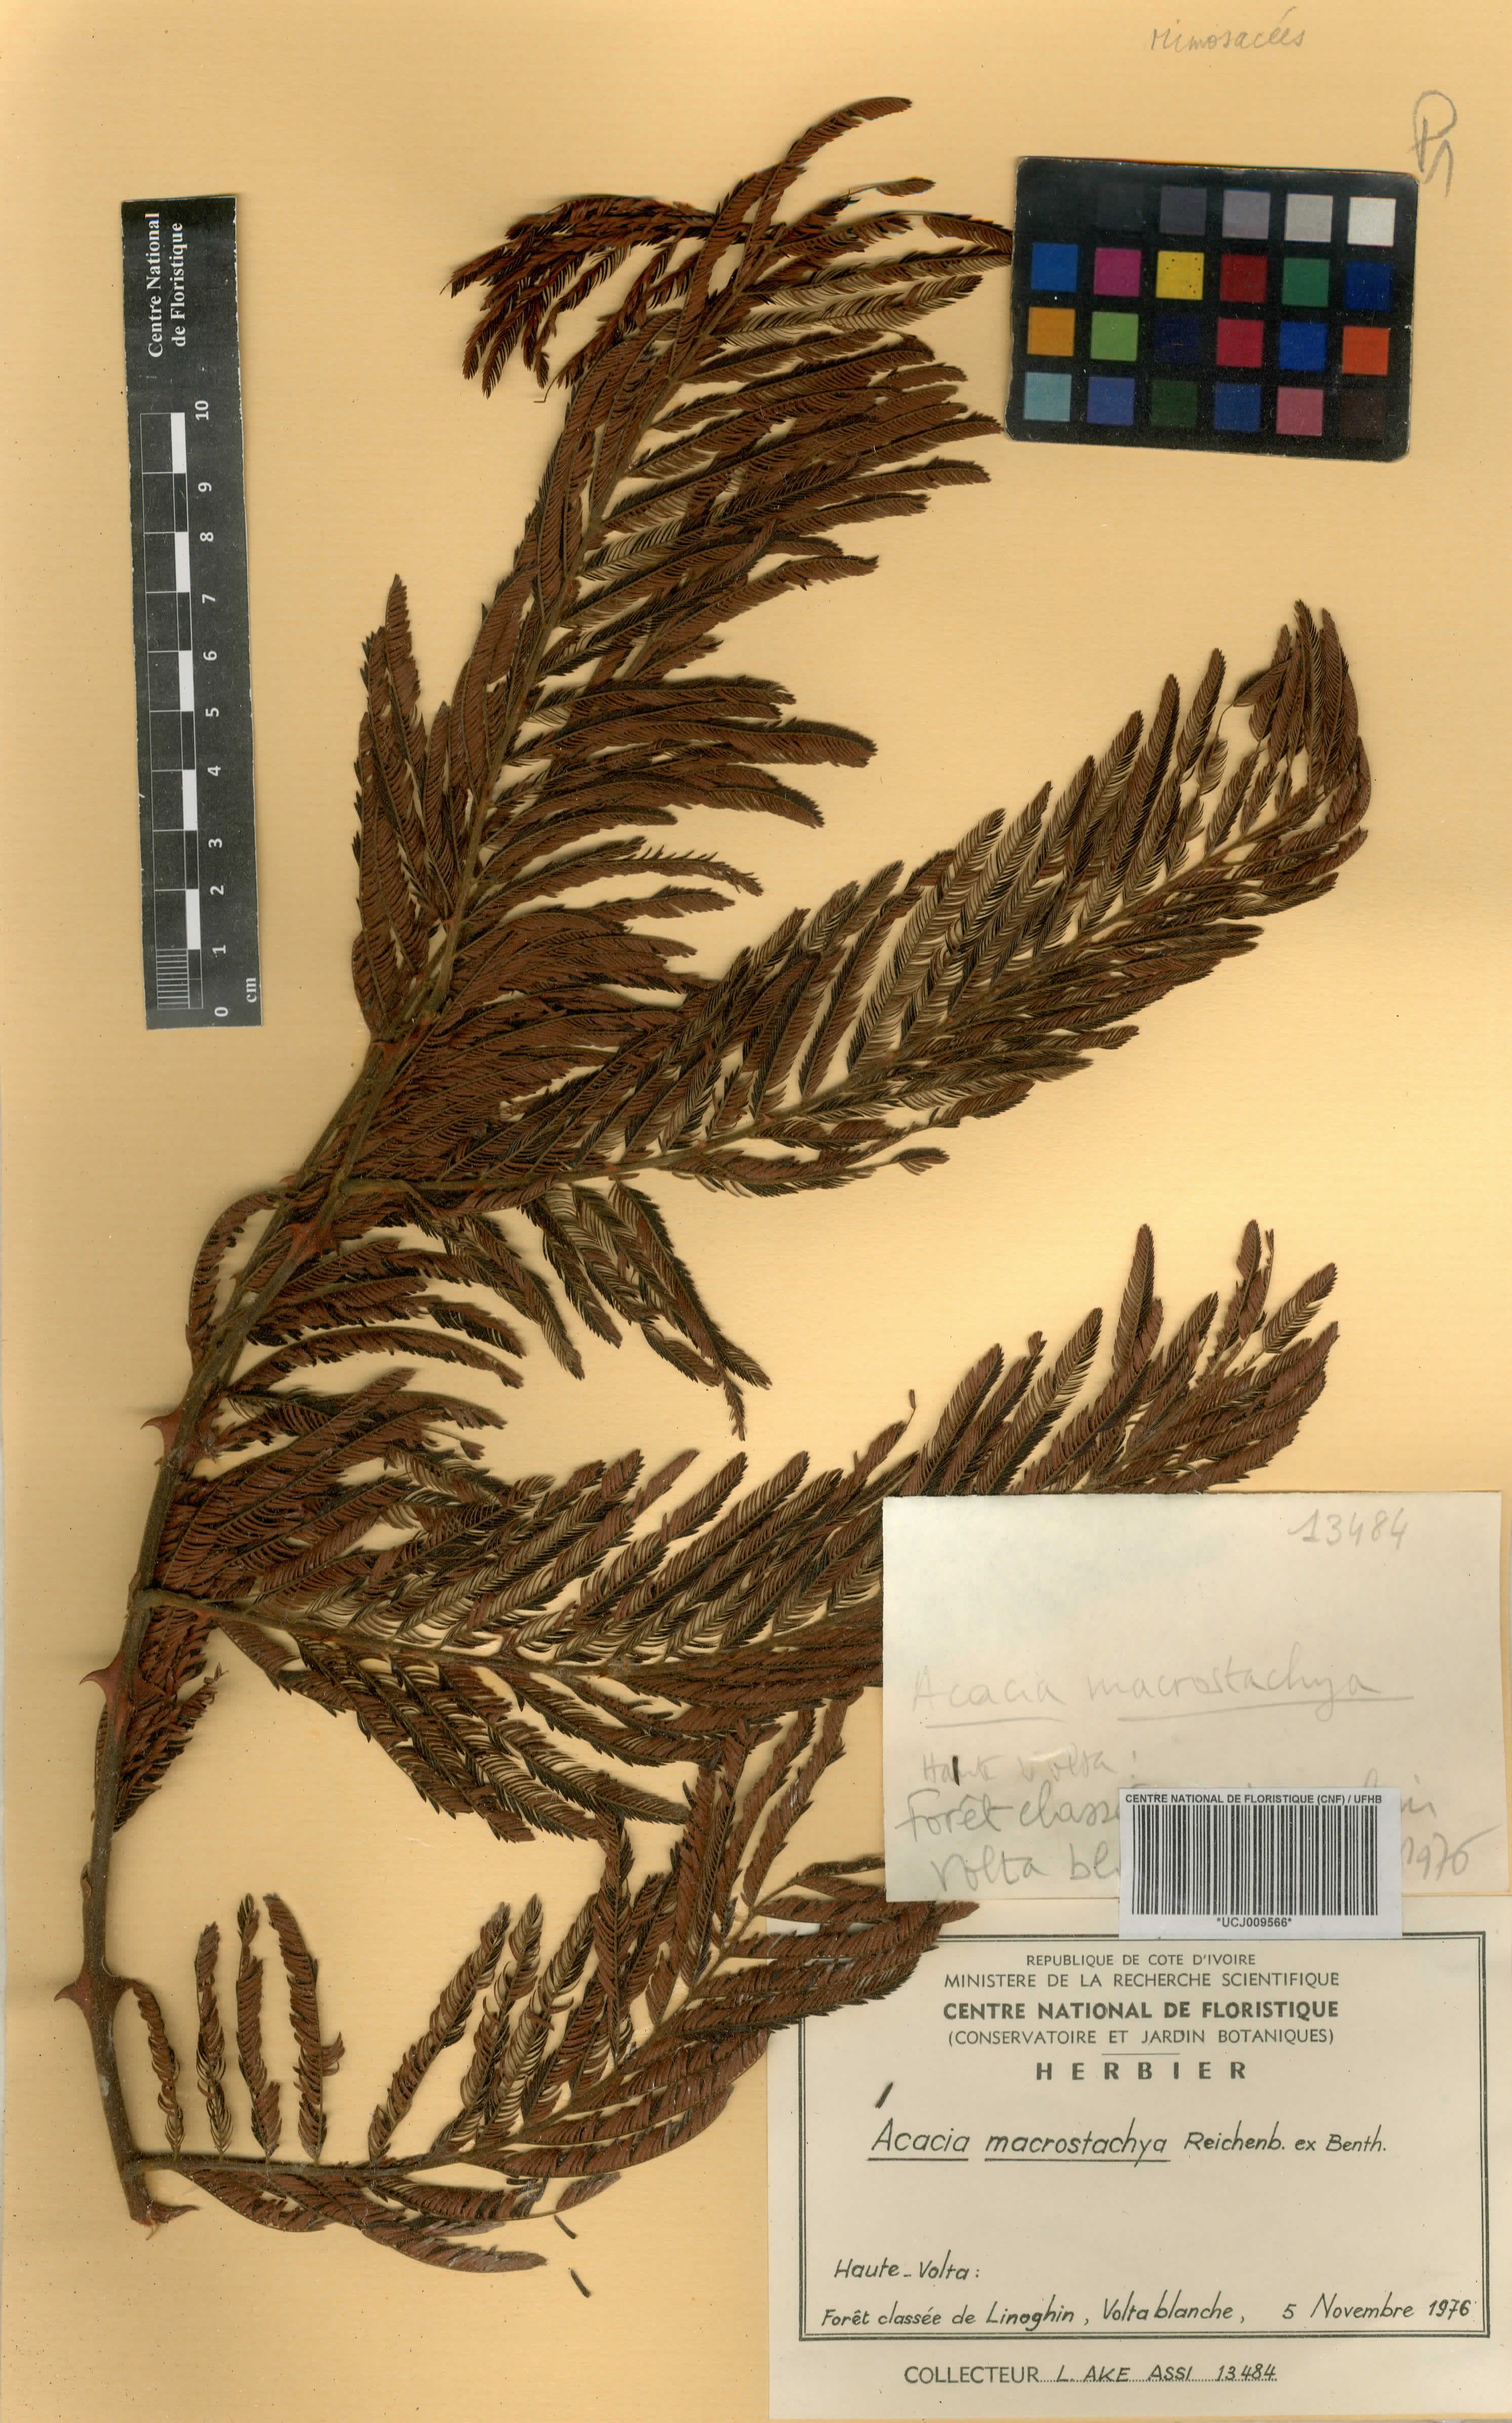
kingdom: Plantae
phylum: Tracheophyta
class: Magnoliopsida
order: Fabales
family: Fabaceae
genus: Senegalia
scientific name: Senegalia macrostachya
